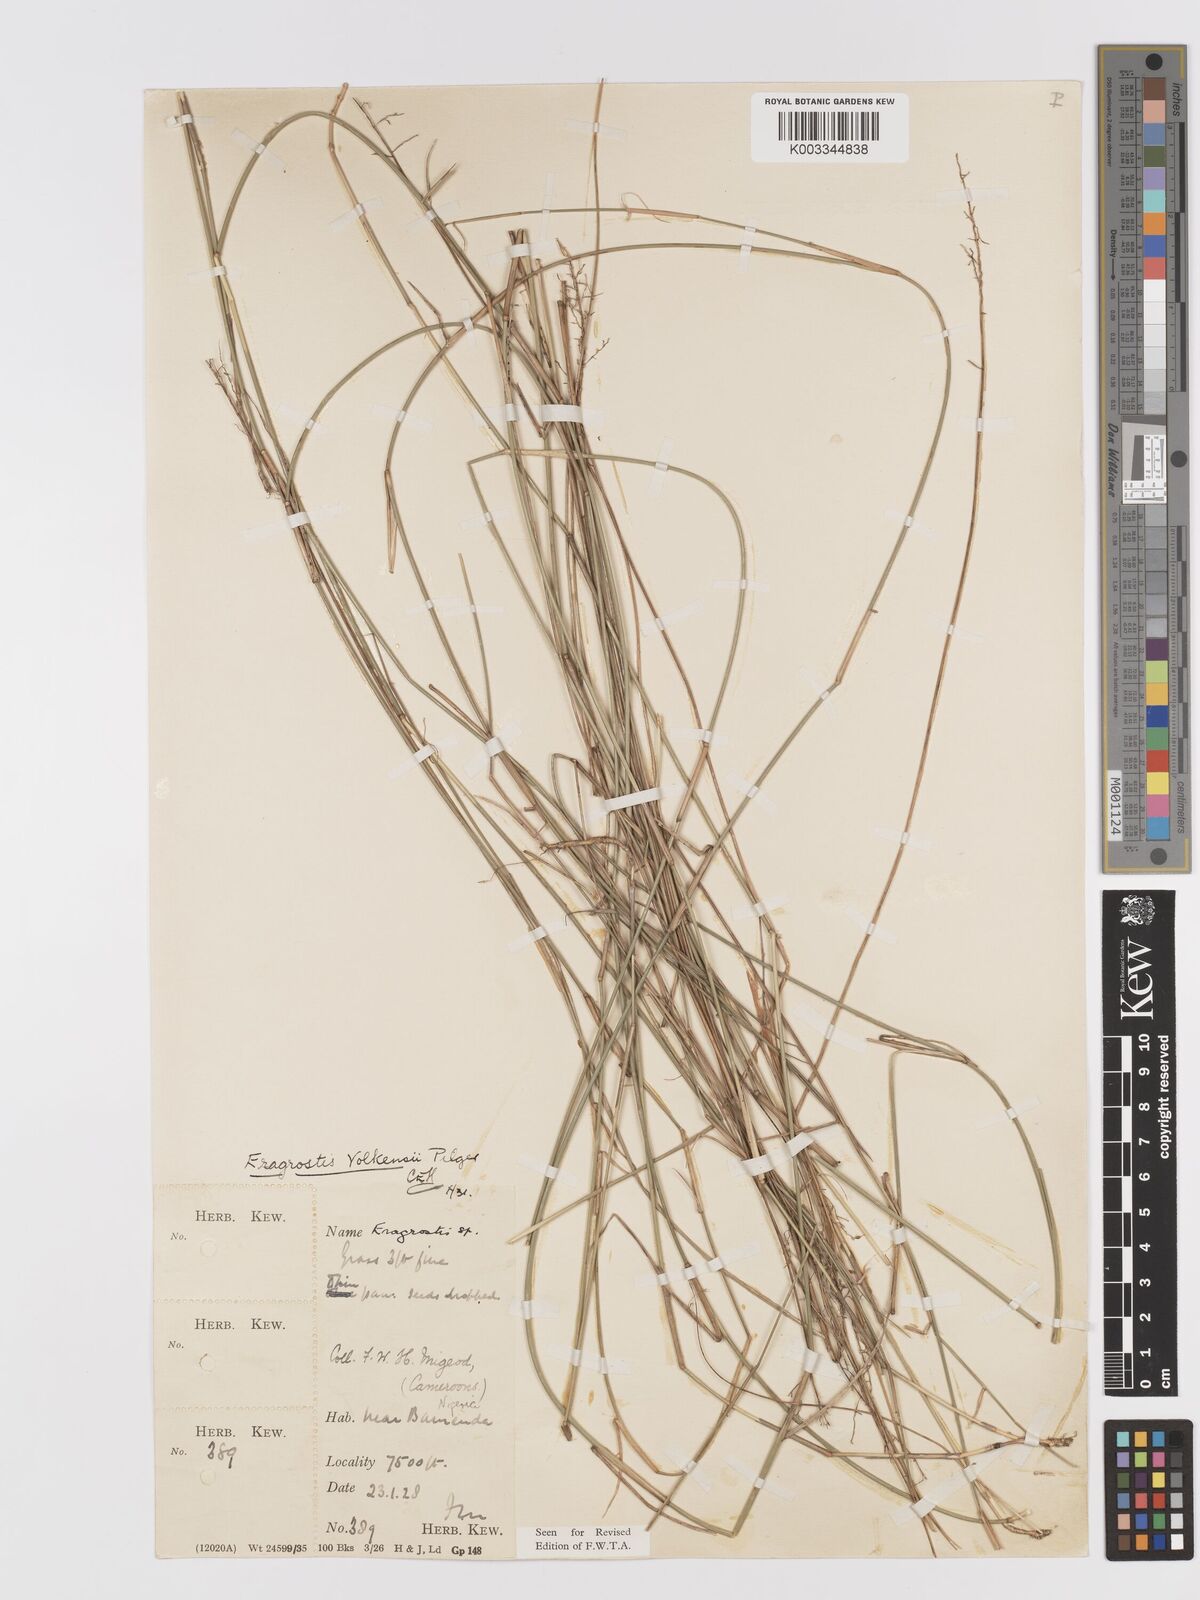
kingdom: Plantae
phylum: Tracheophyta
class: Liliopsida
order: Poales
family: Poaceae
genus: Eragrostis
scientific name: Eragrostis volkensii
